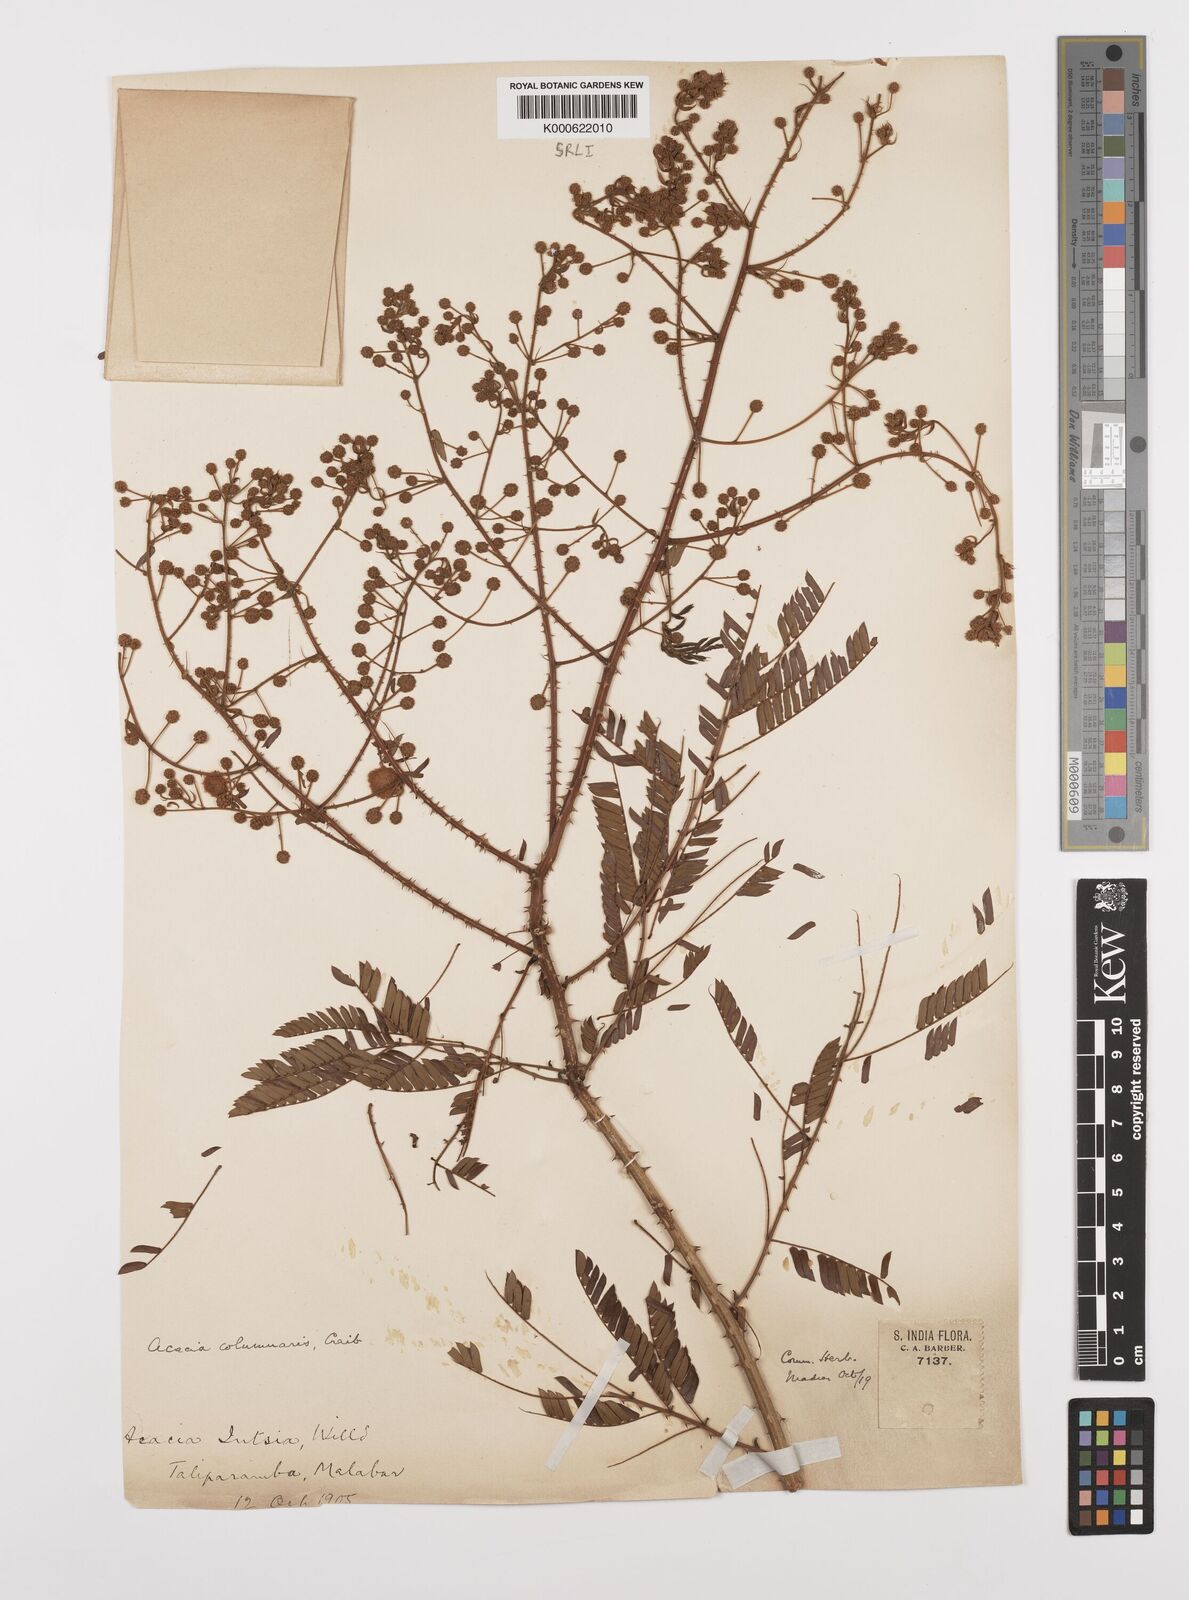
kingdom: Plantae
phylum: Tracheophyta
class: Magnoliopsida
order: Fabales
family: Fabaceae
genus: Senegalia
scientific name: Senegalia caesia
